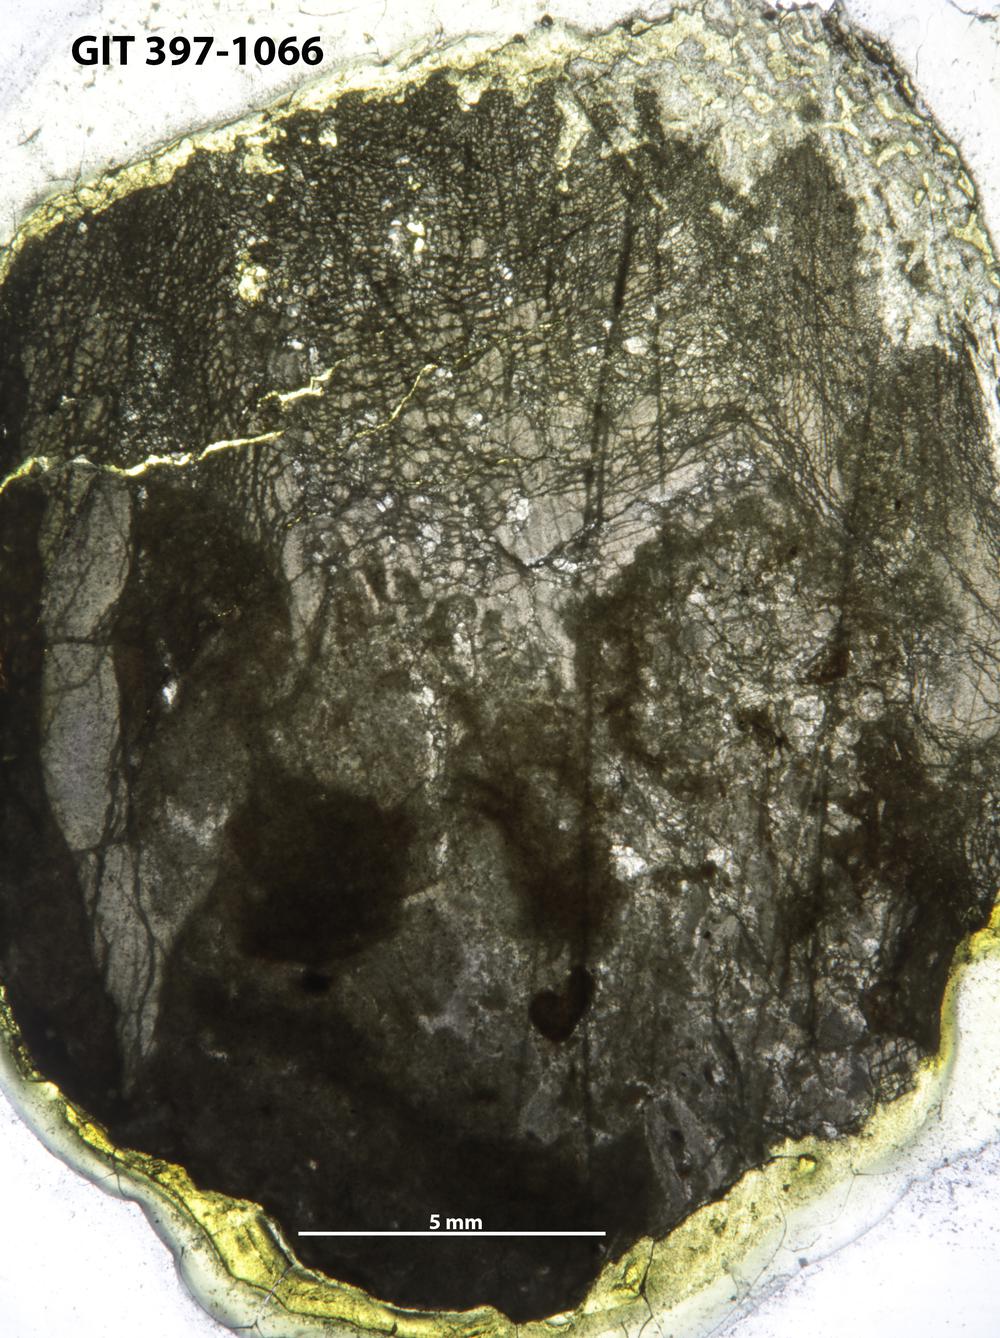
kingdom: Animalia
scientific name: Animalia
